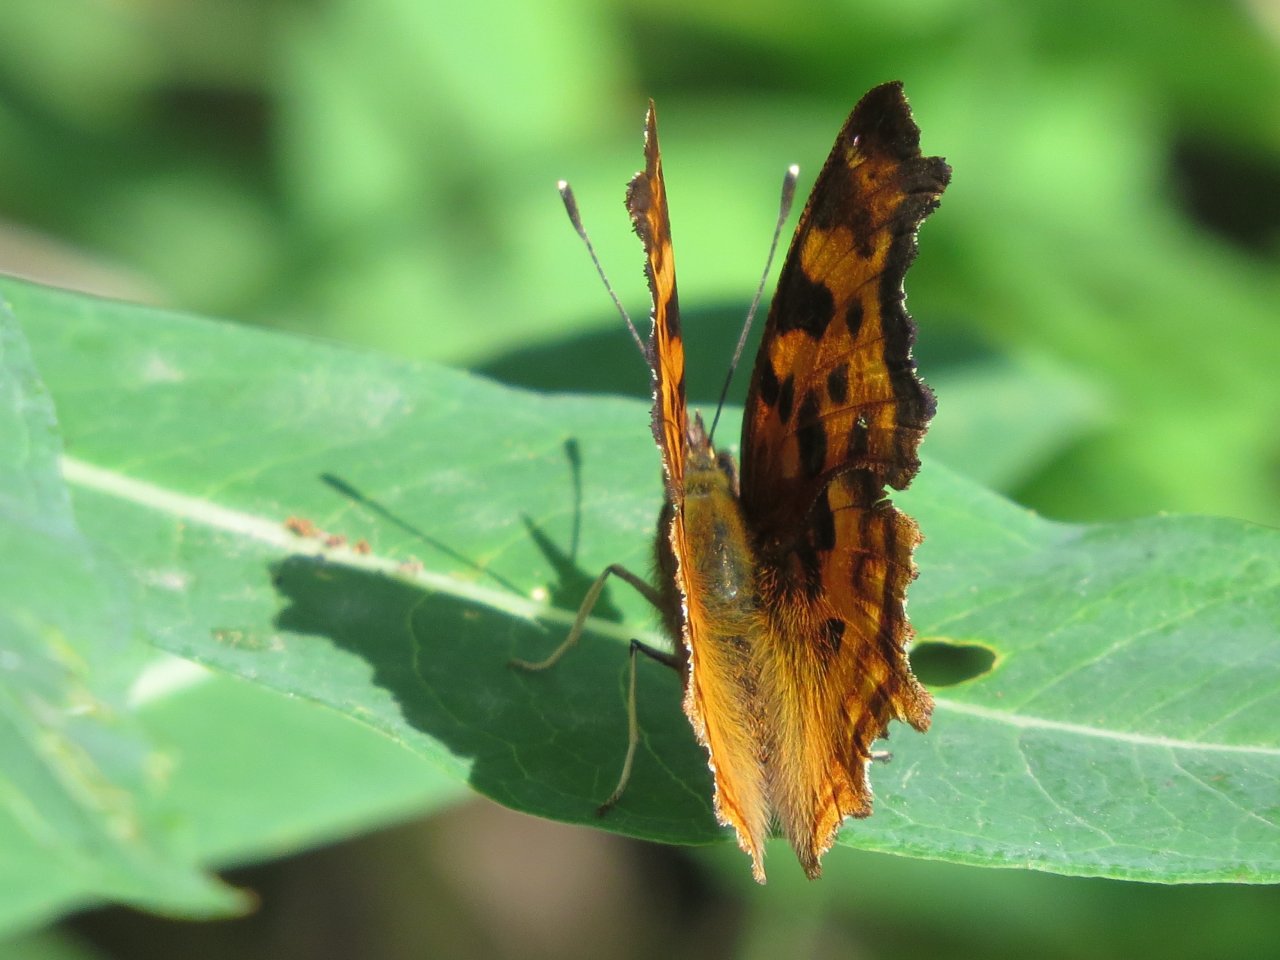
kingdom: Animalia
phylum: Arthropoda
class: Insecta
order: Lepidoptera
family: Nymphalidae
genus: Polygonia
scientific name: Polygonia satyrus
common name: Satyr Comma
